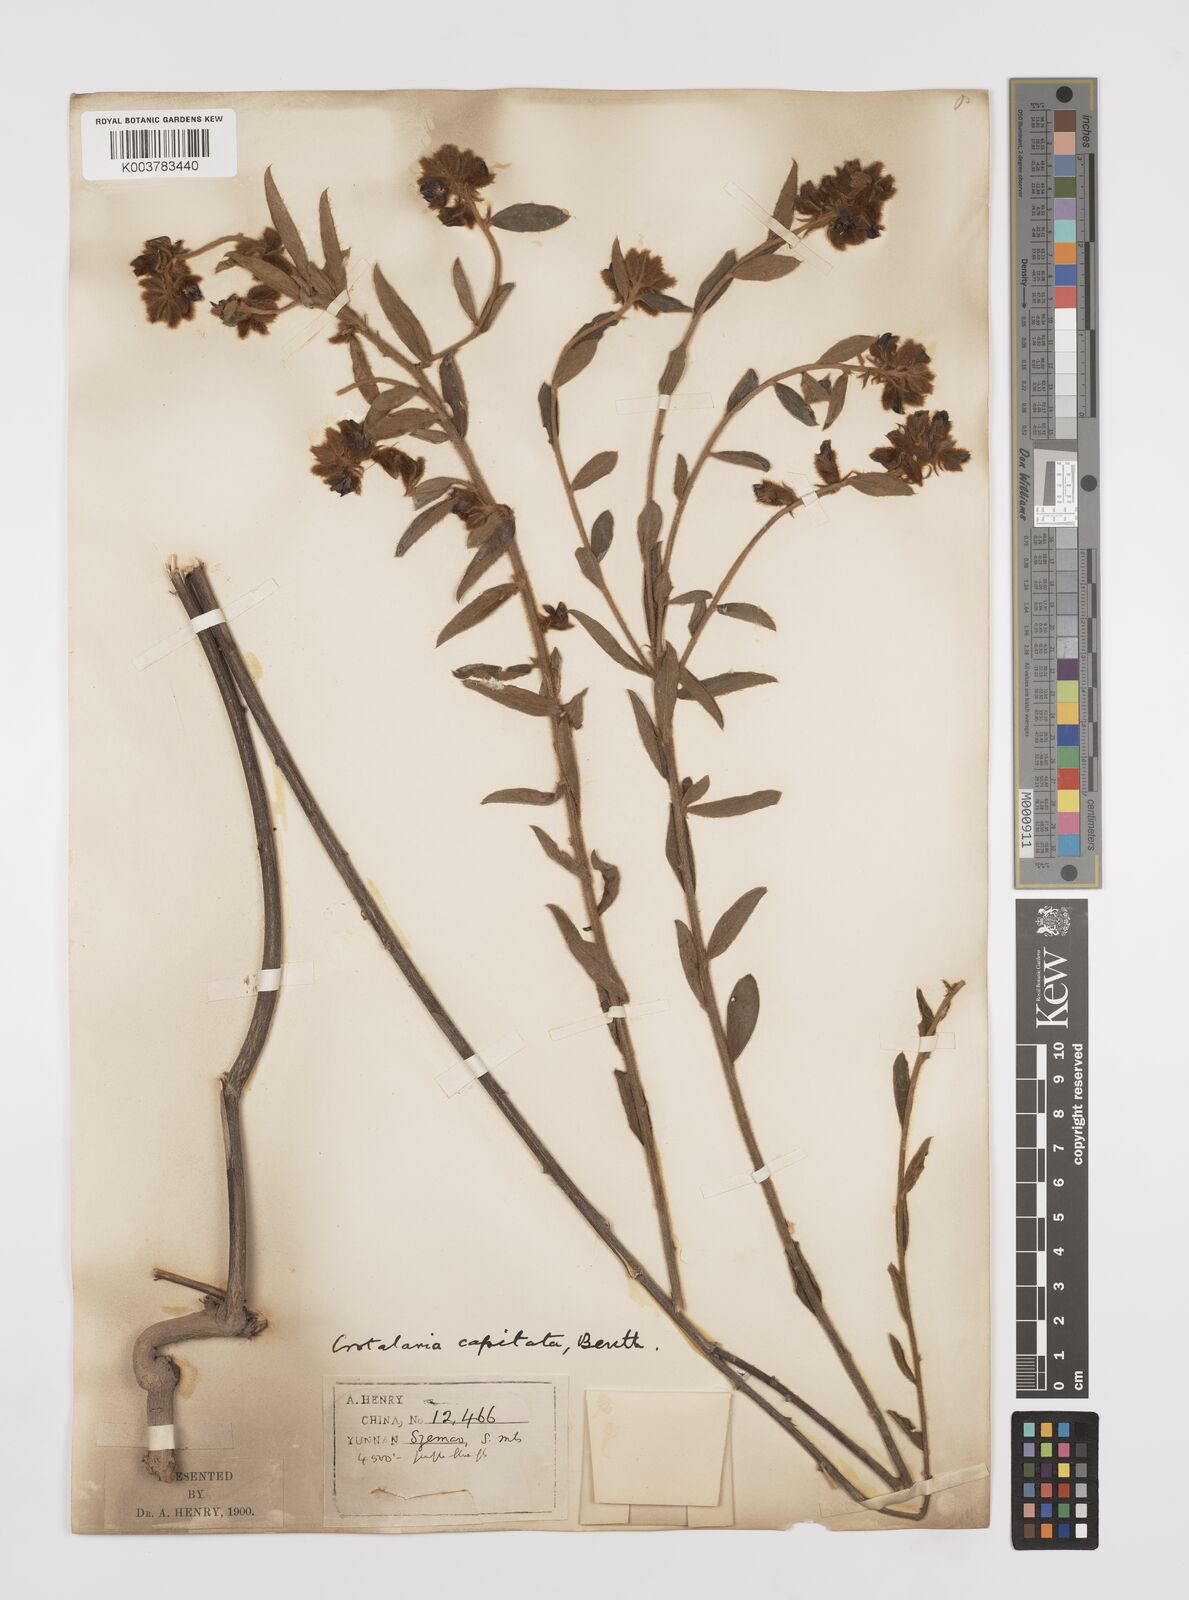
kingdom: Plantae
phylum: Tracheophyta
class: Magnoliopsida
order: Fabales
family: Fabaceae
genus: Liparia
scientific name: Liparia capitata
